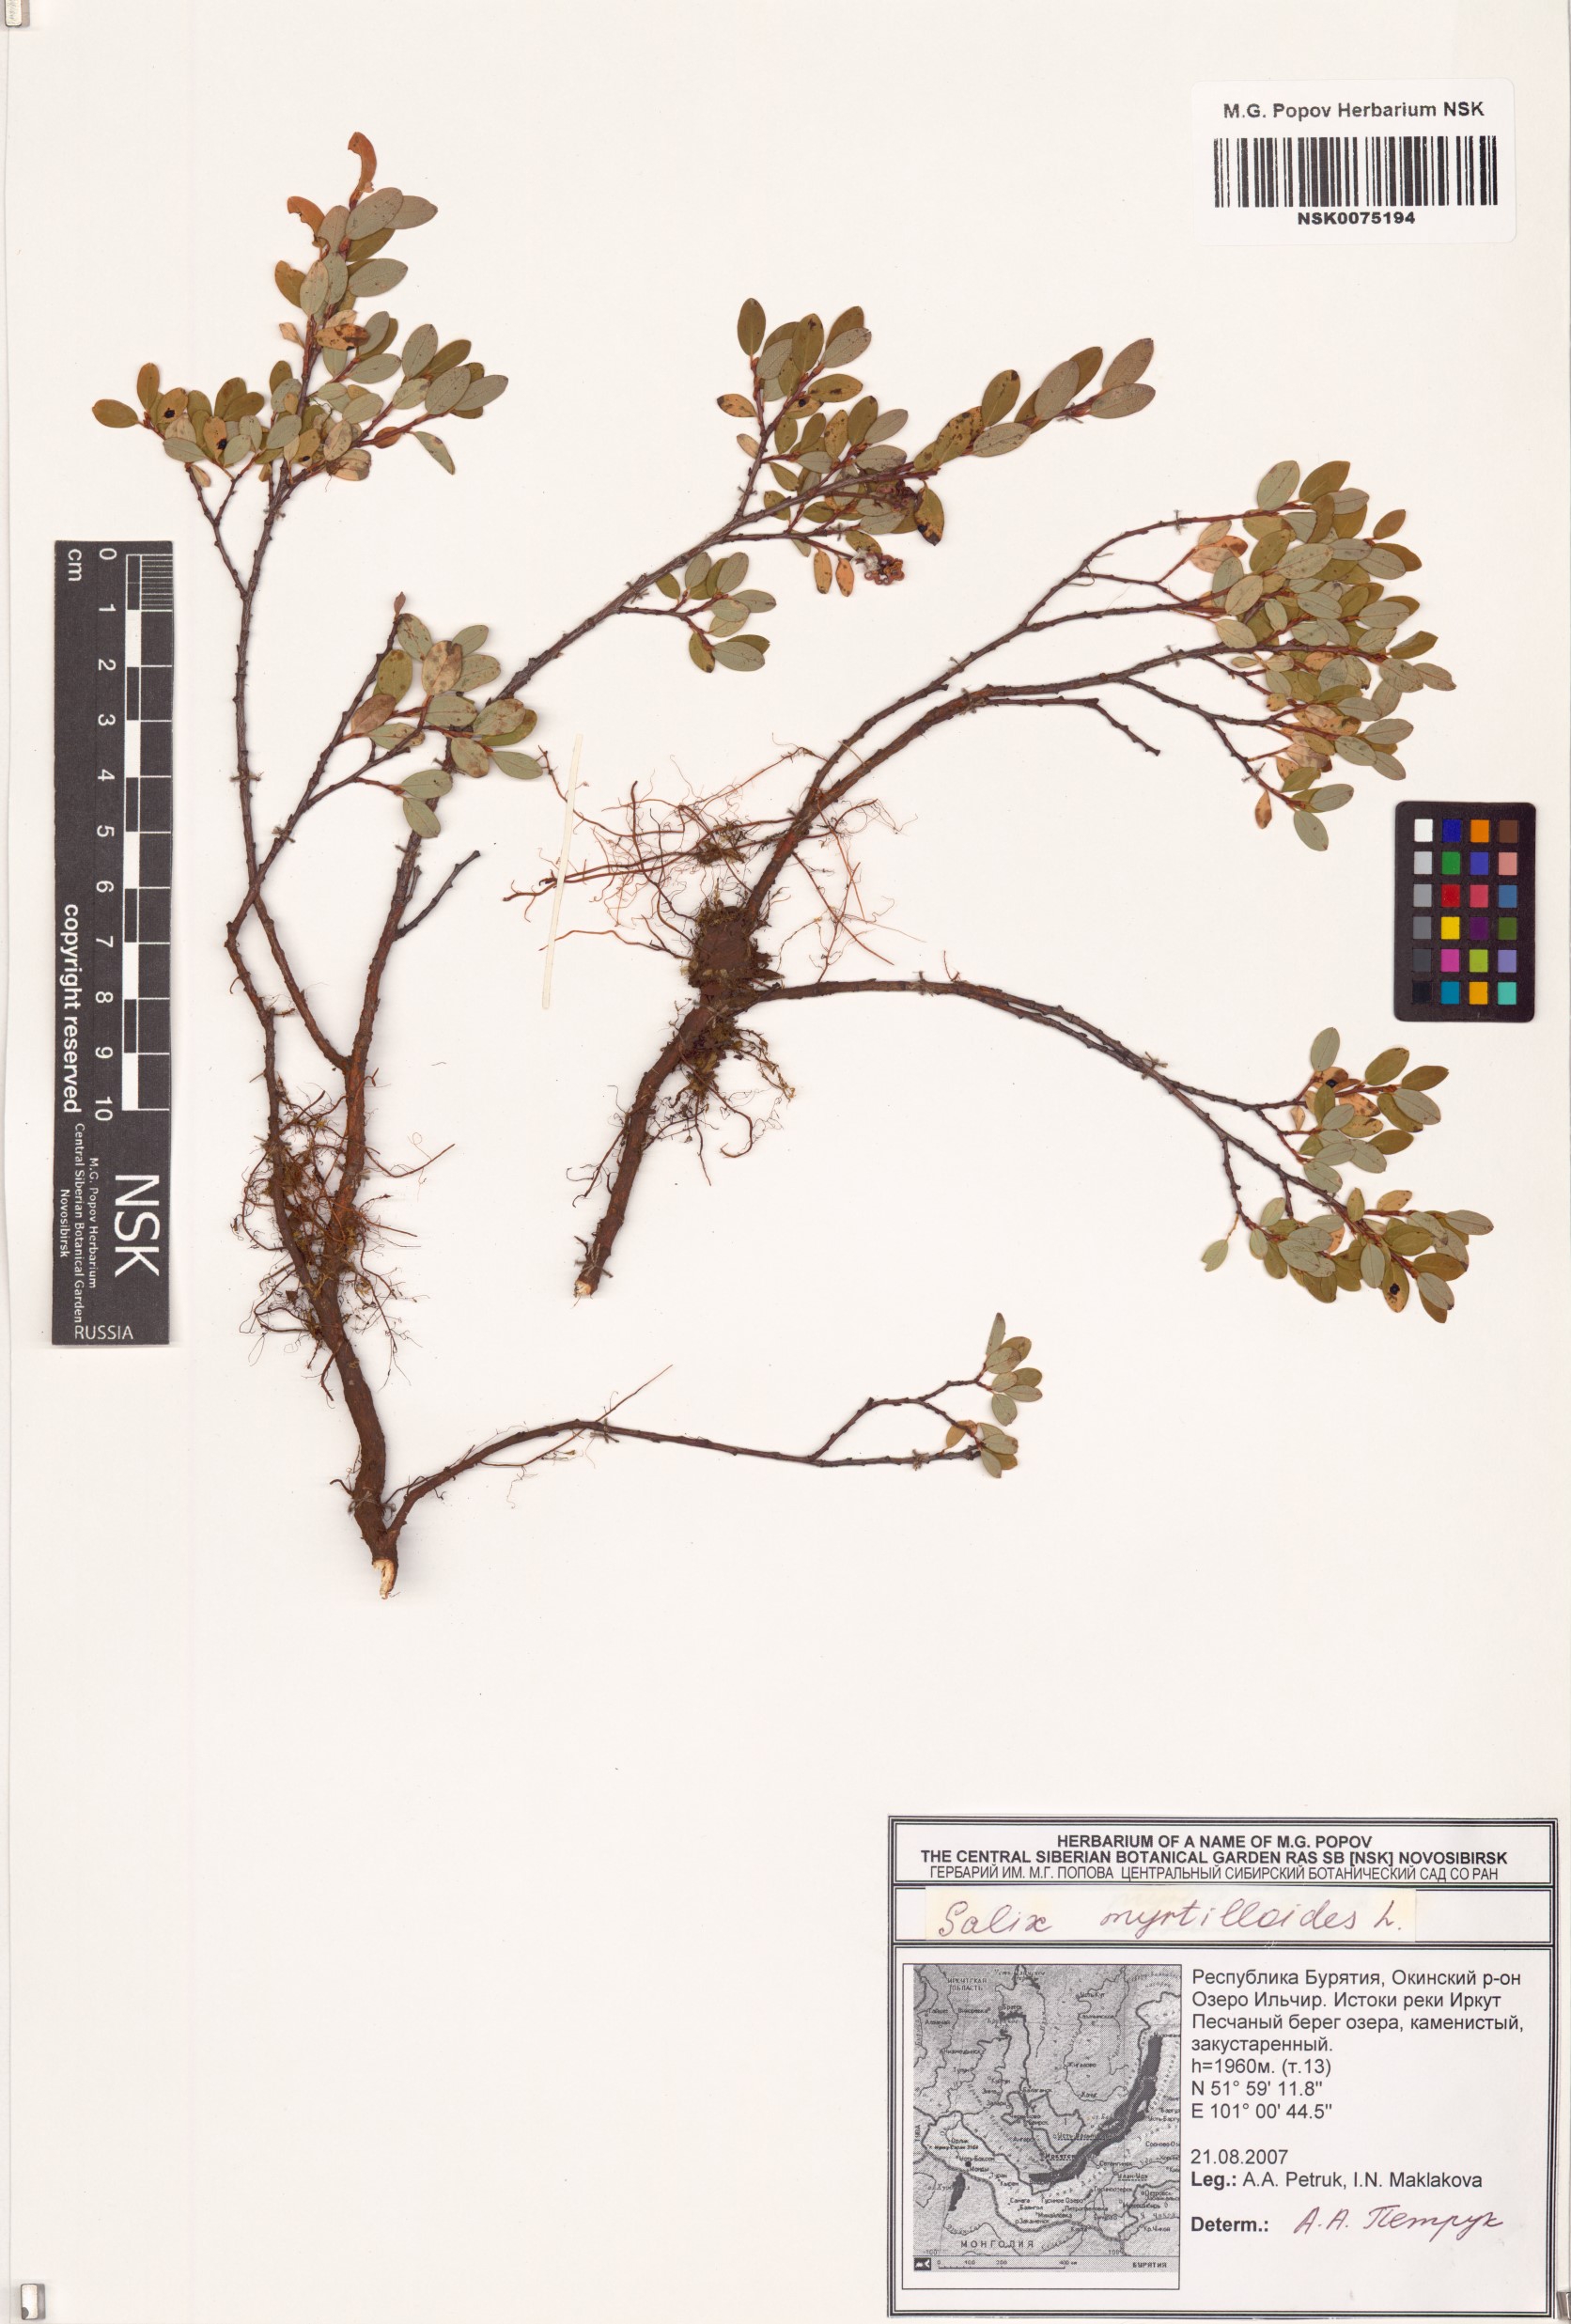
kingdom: Plantae
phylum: Tracheophyta
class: Magnoliopsida
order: Malpighiales
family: Salicaceae
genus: Salix
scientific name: Salix myrtilloides
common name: Myrtle-leaved willow
